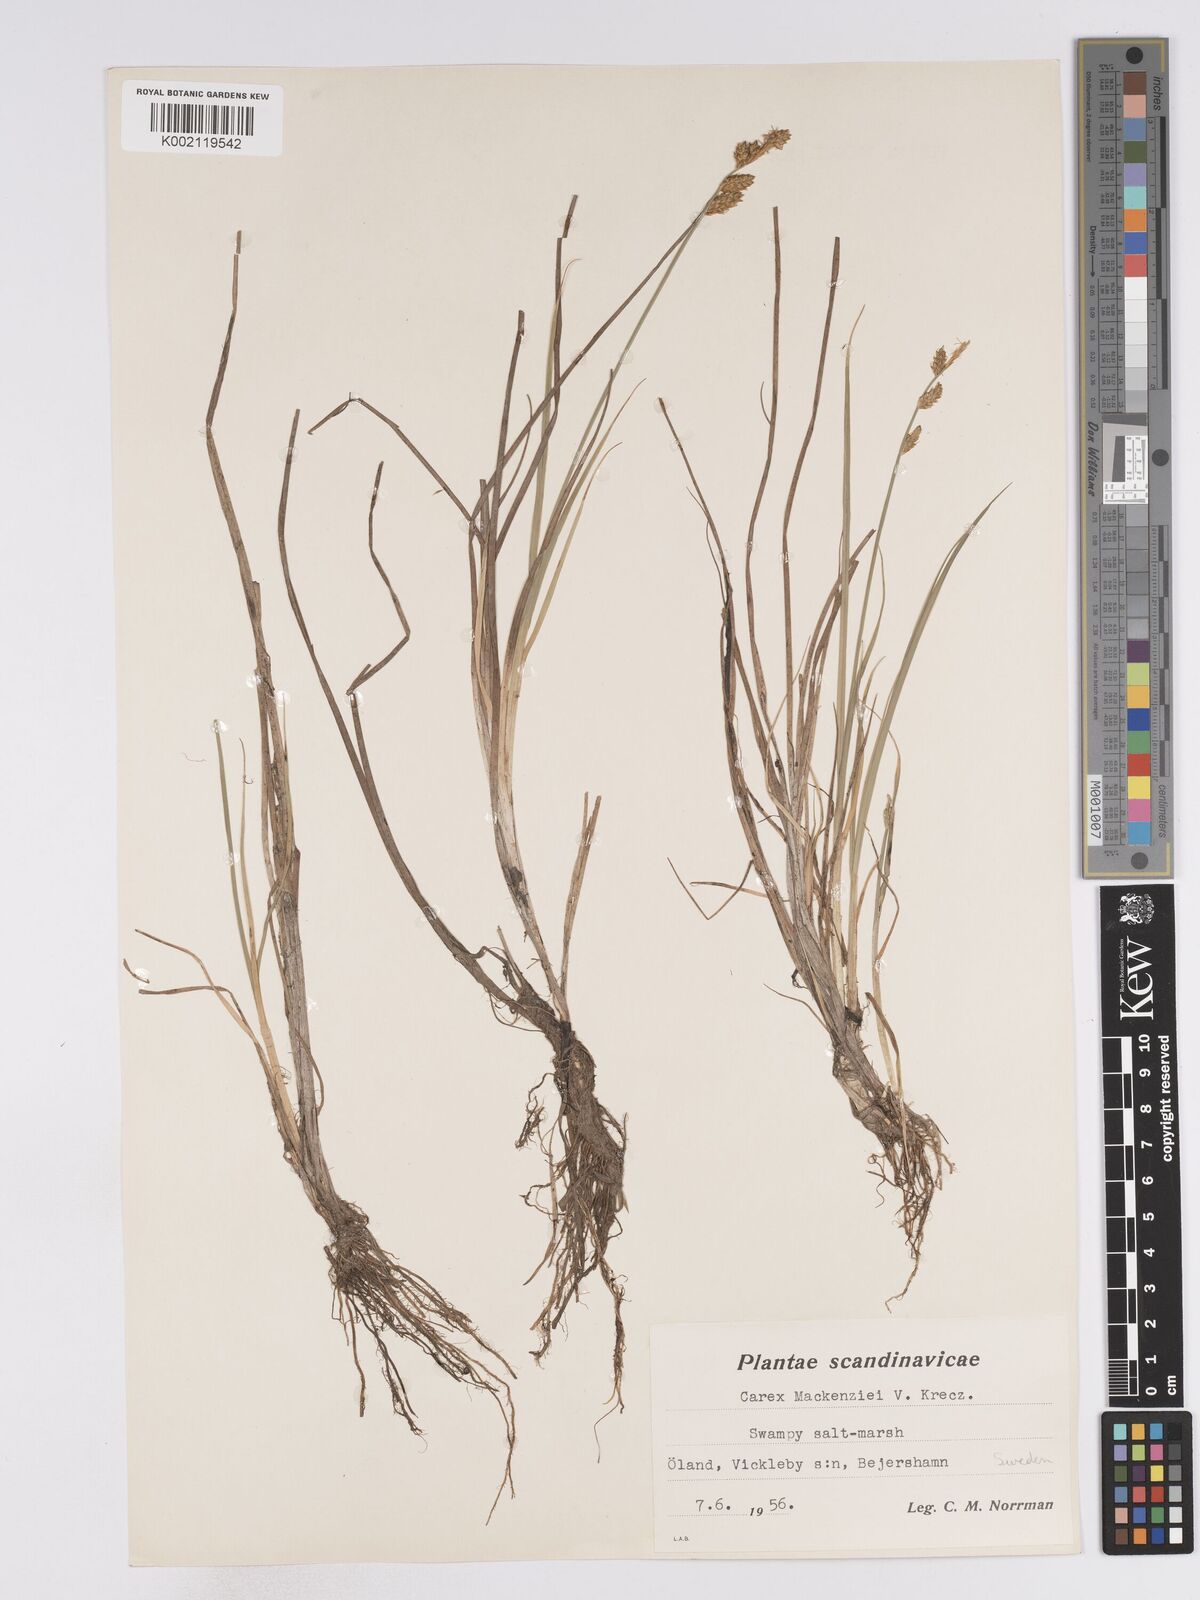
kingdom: Plantae
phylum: Tracheophyta
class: Liliopsida
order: Poales
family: Cyperaceae
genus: Carex
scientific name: Carex mackenziei
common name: Mackenzie's sedge
